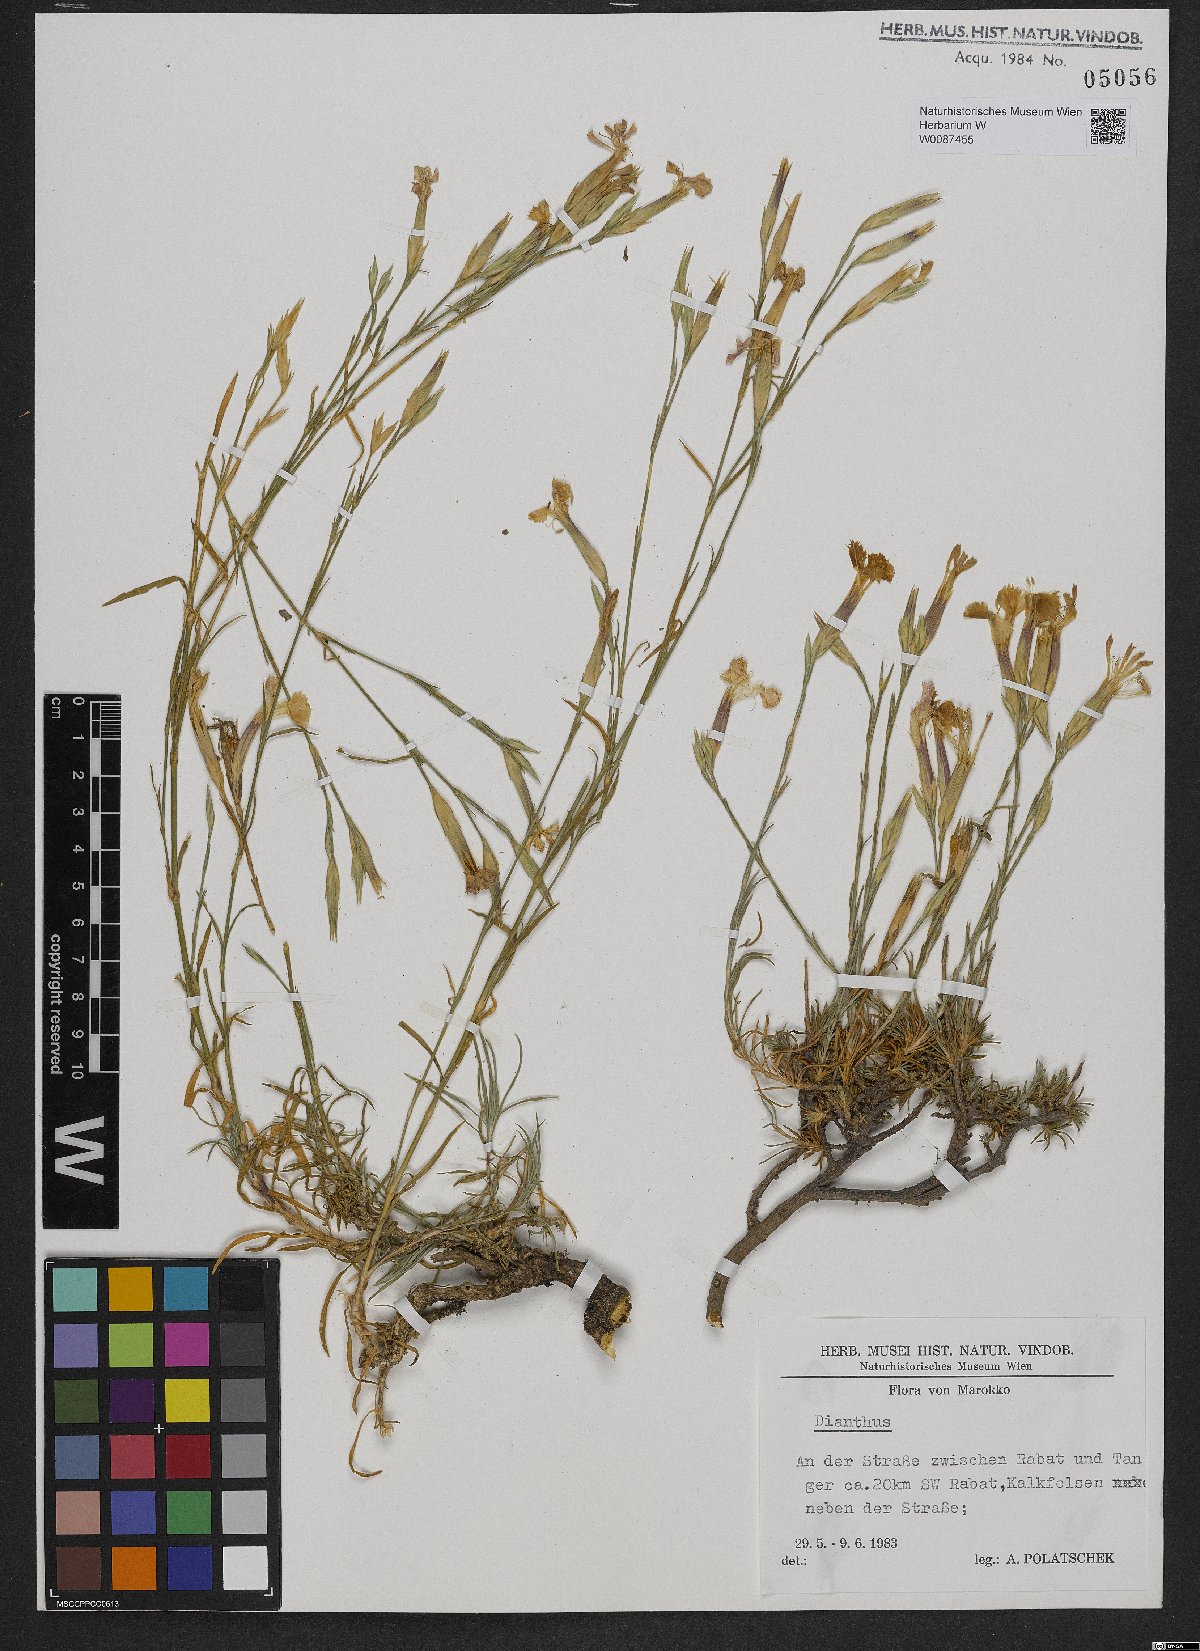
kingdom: Plantae
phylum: Tracheophyta
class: Magnoliopsida
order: Caryophyllales
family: Caryophyllaceae
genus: Dianthus
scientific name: Dianthus
